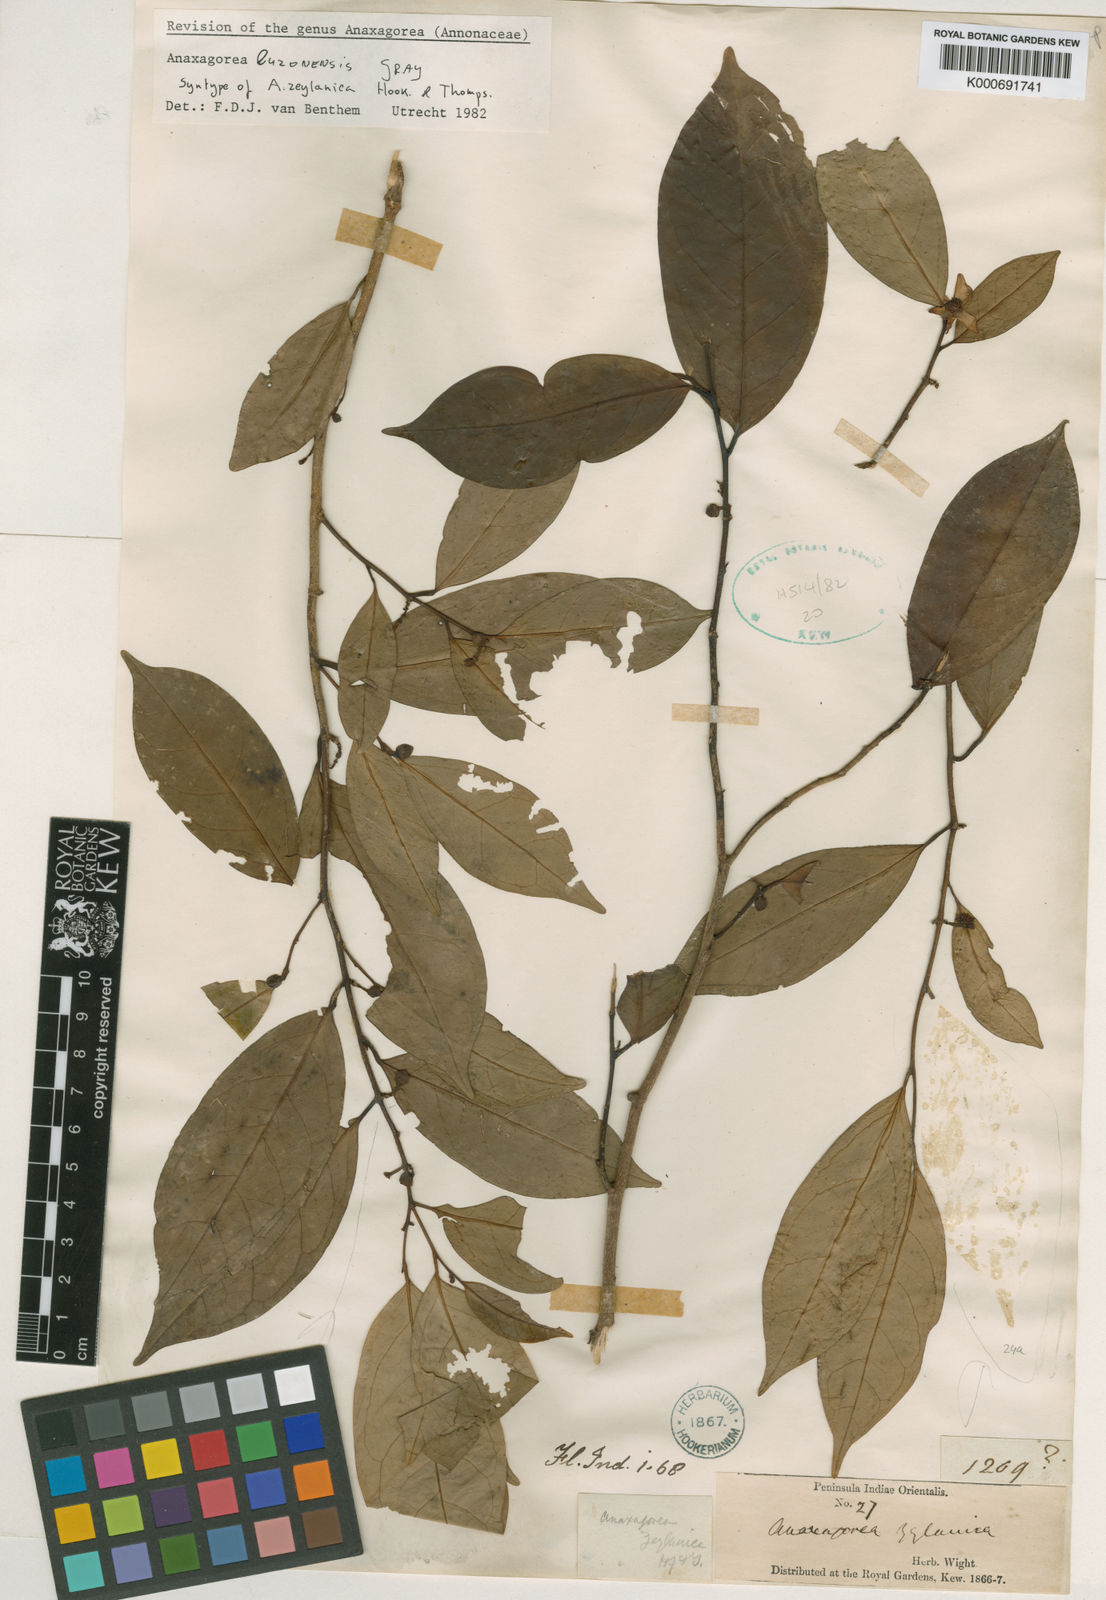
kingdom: Plantae
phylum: Tracheophyta
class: Magnoliopsida
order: Magnoliales
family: Annonaceae
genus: Anaxagorea
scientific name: Anaxagorea luzonensis
